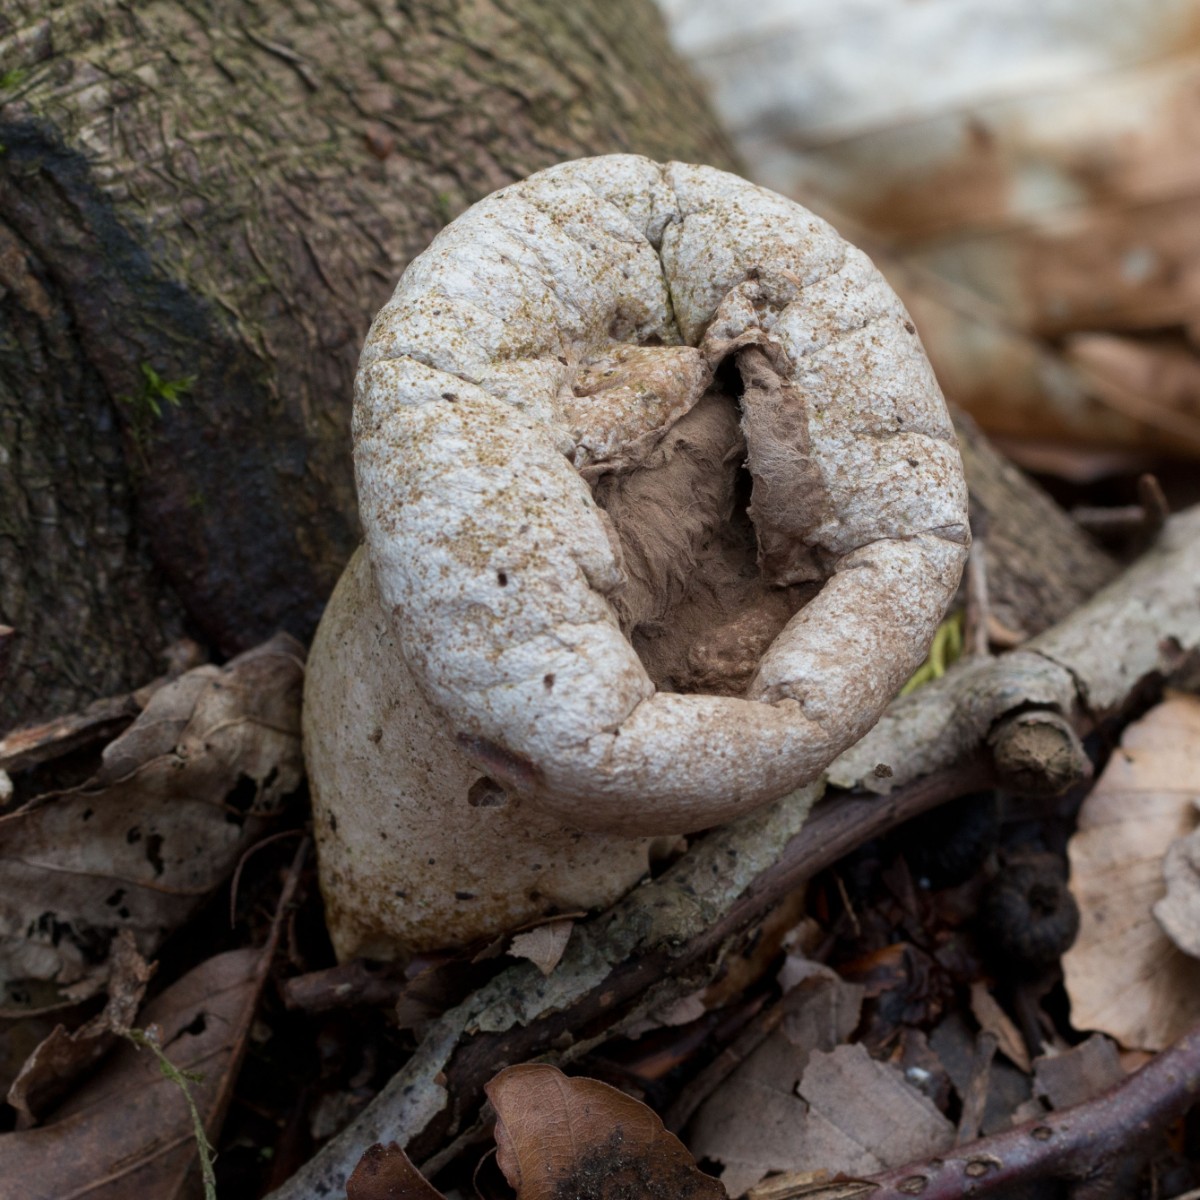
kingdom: Fungi
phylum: Basidiomycota
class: Agaricomycetes
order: Agaricales
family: Lycoperdaceae
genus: Lycoperdon
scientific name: Lycoperdon excipuliforme
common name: højstokket støvbold
